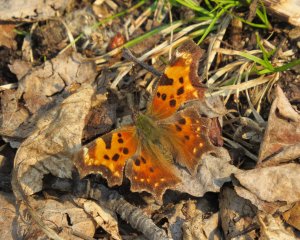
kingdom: Animalia
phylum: Arthropoda
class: Insecta
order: Lepidoptera
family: Nymphalidae
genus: Polygonia
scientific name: Polygonia progne
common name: Gray Comma
